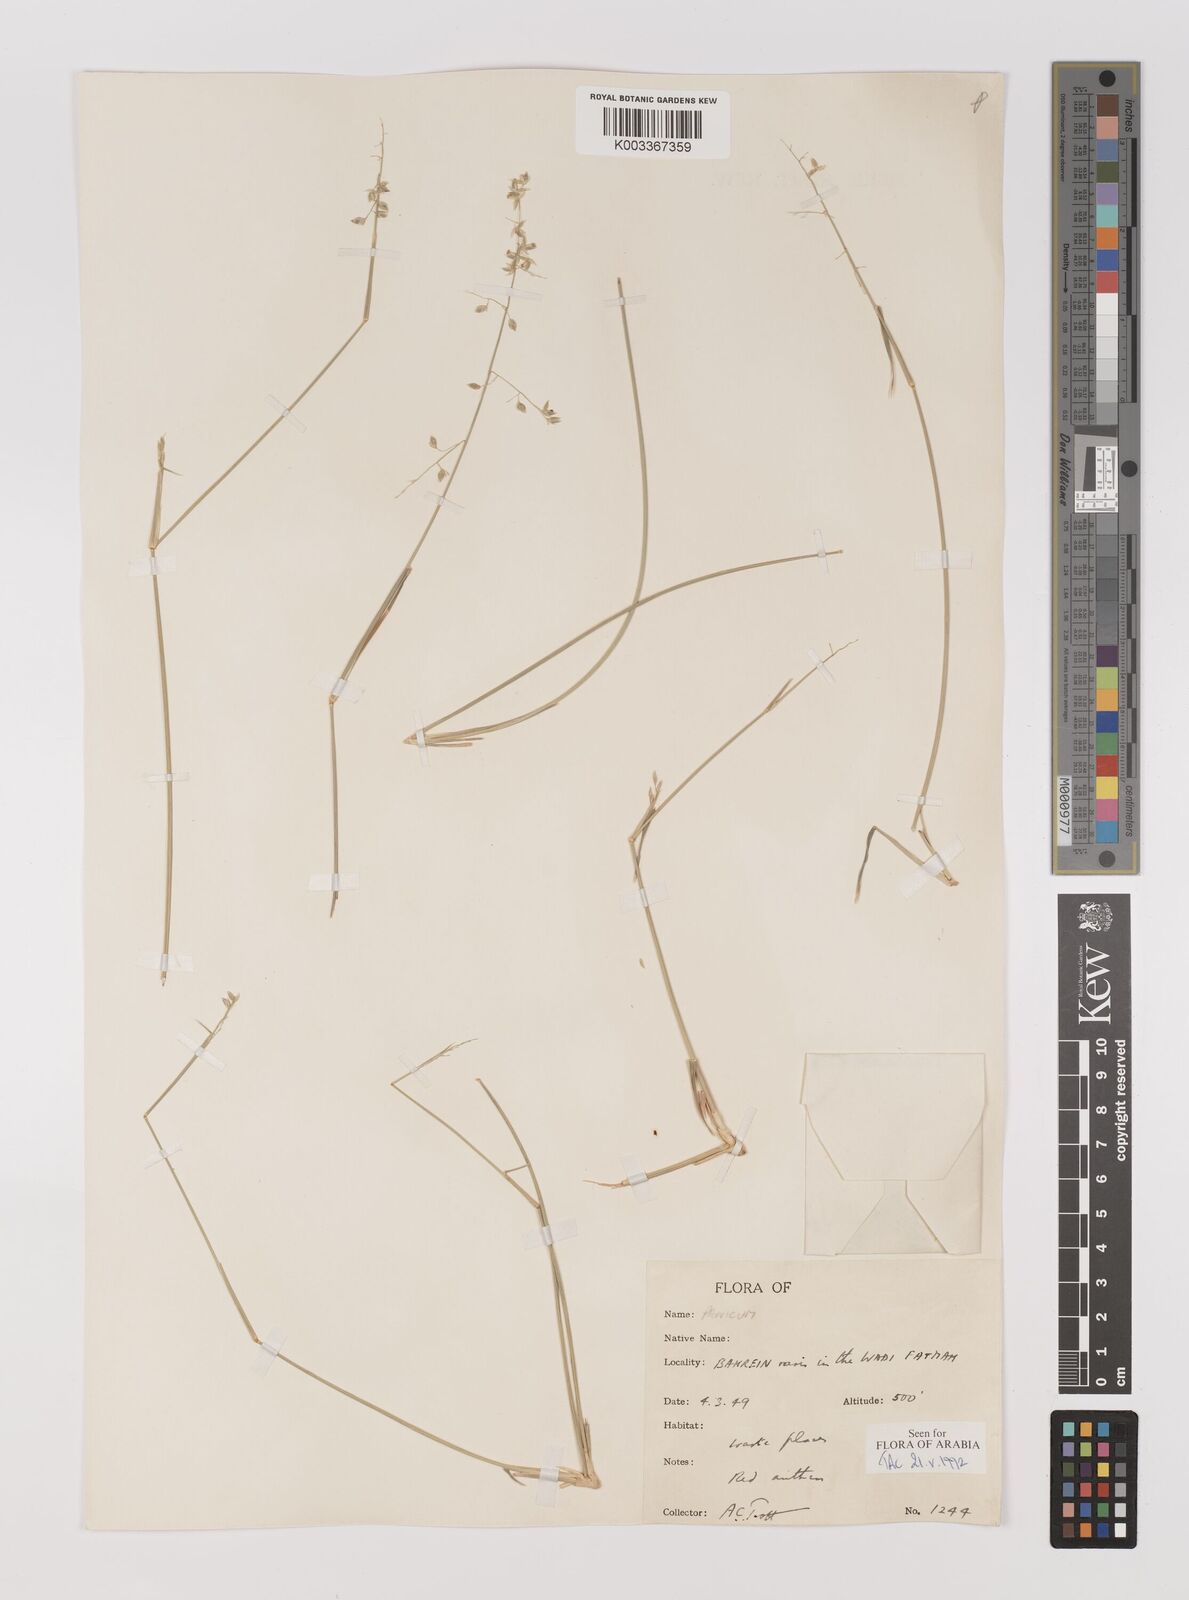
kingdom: Plantae
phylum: Tracheophyta
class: Liliopsida
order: Poales
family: Poaceae
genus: Panicum
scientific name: Panicum turgidum
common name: Desert grass
